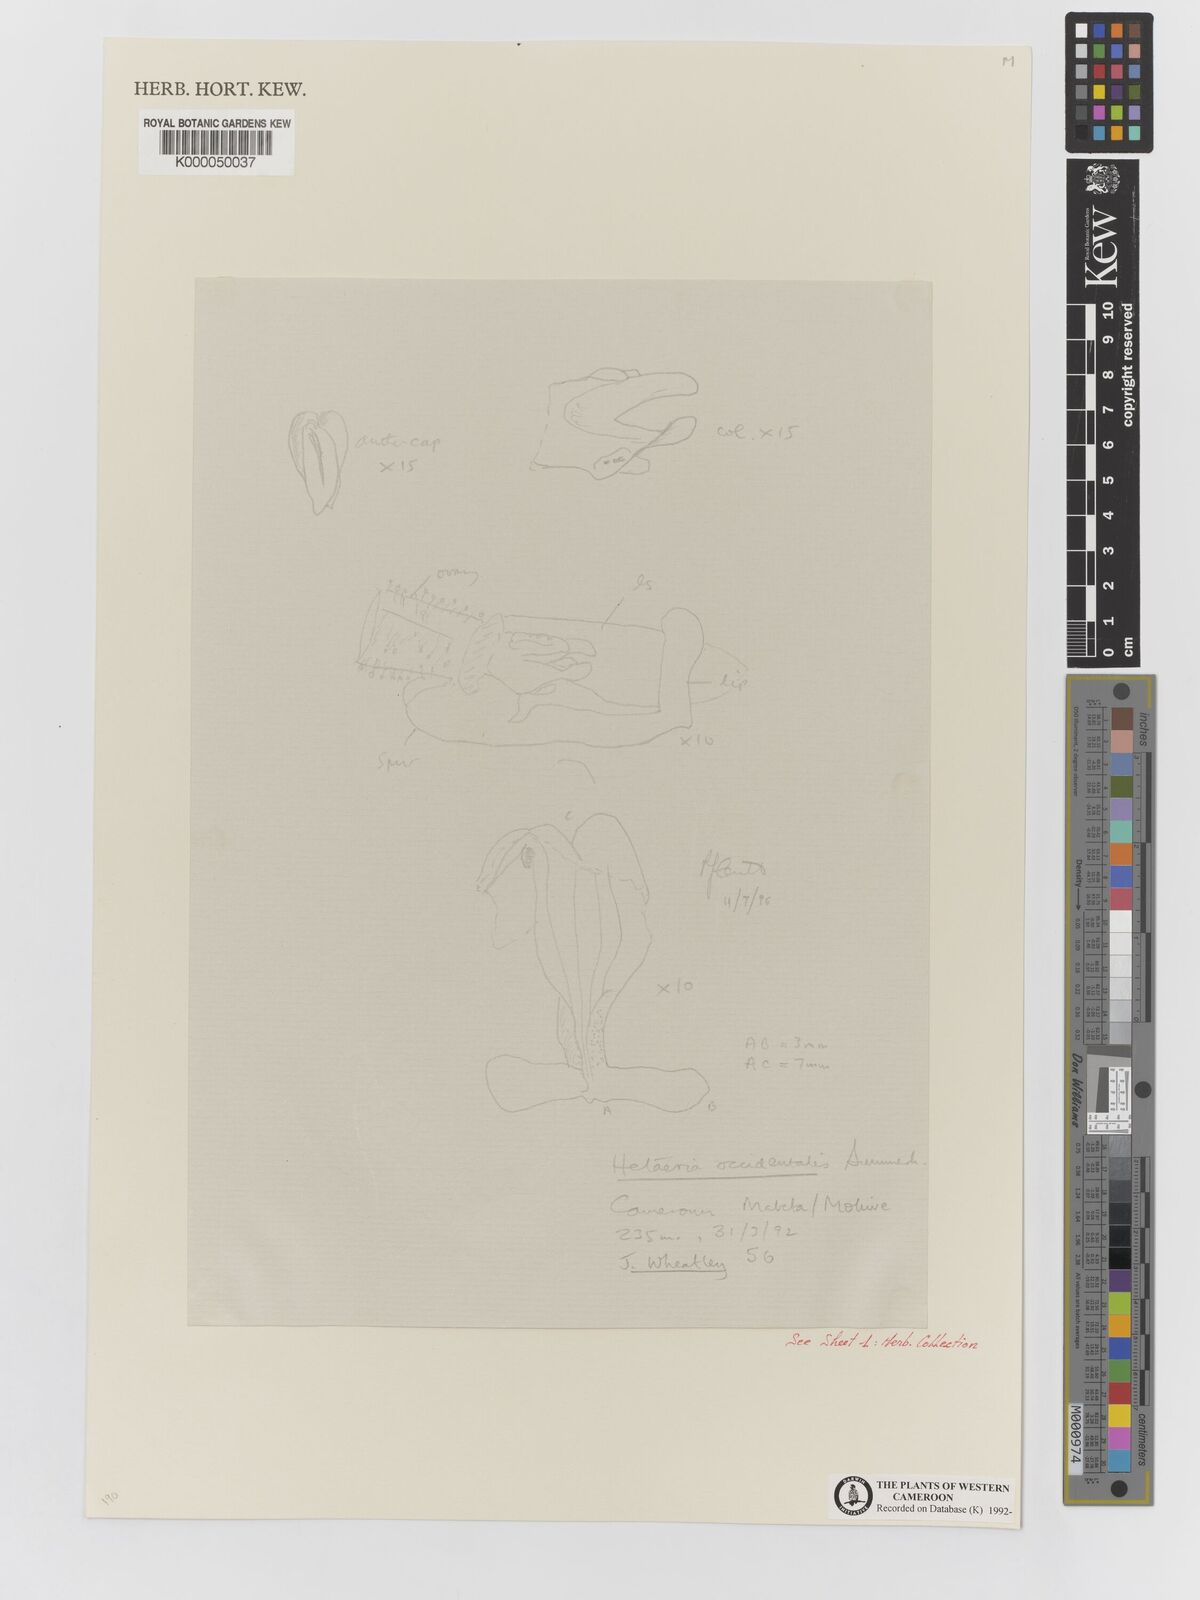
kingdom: Plantae
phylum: Tracheophyta
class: Liliopsida
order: Asparagales
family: Orchidaceae
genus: Hetaeria
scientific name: Hetaeria occidentalis
